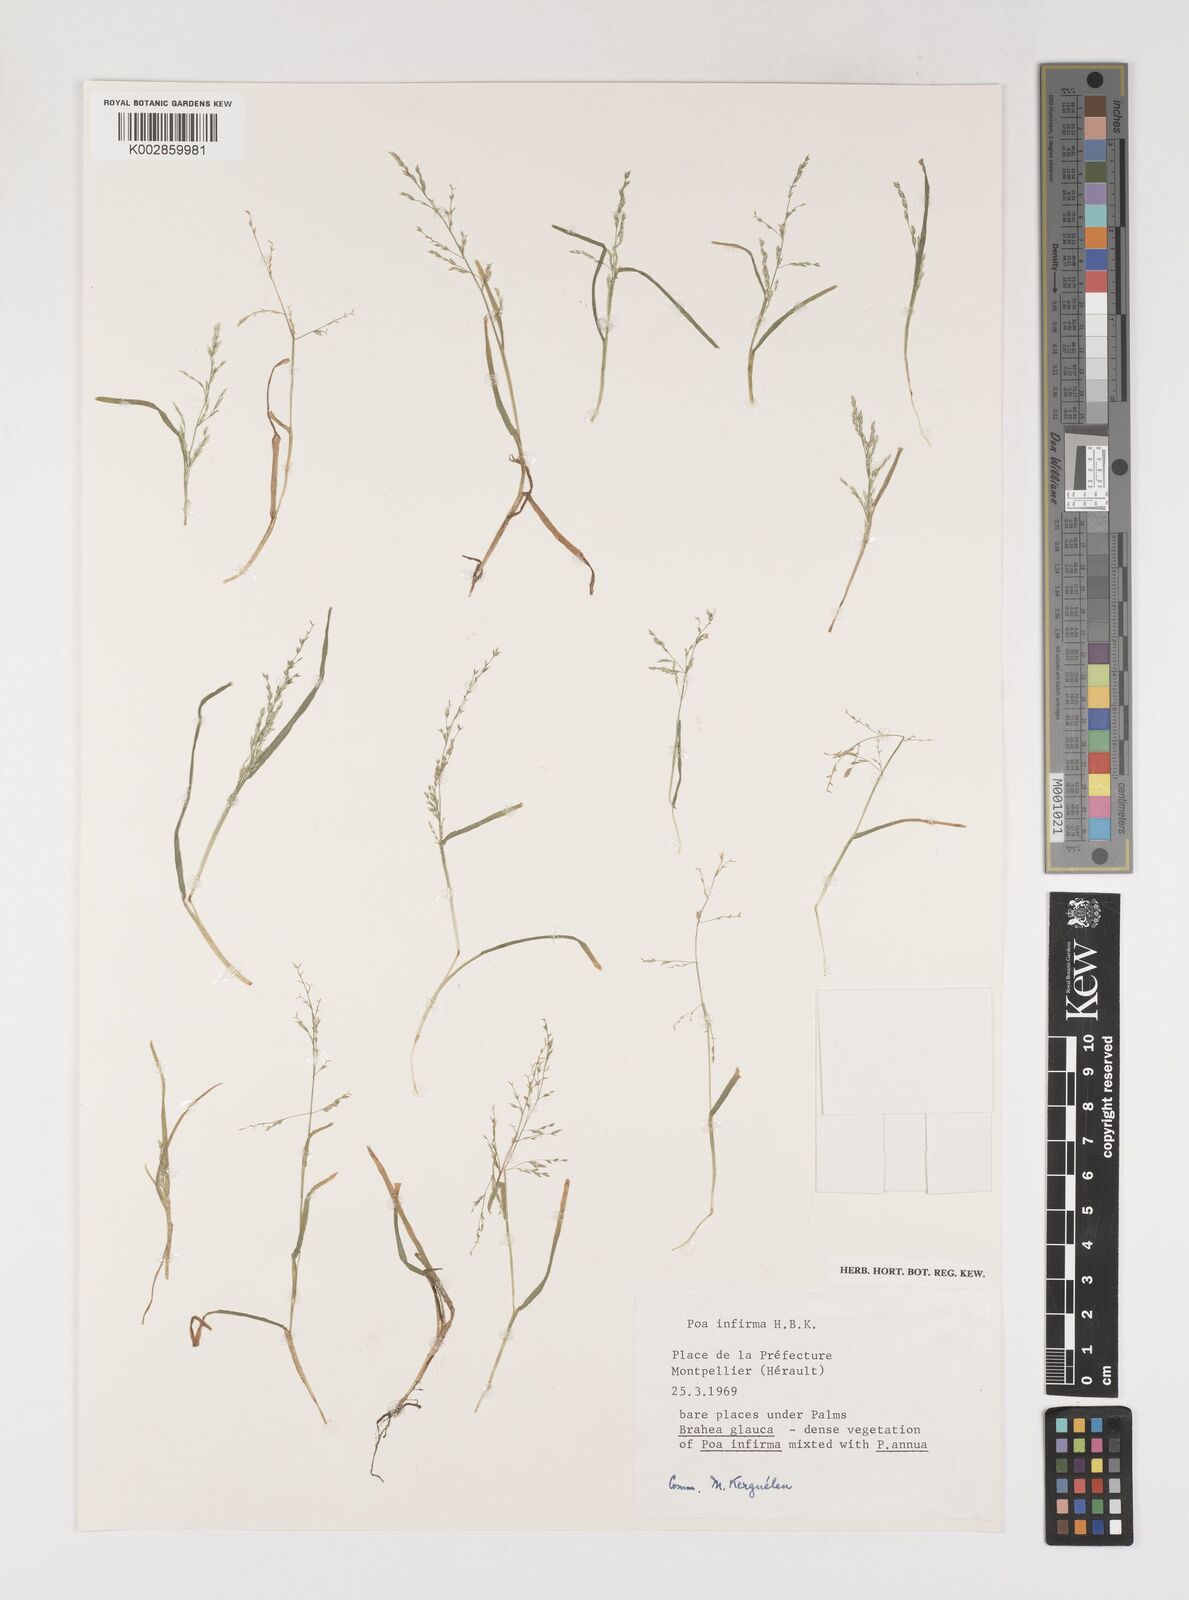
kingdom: Plantae
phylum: Tracheophyta
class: Liliopsida
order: Poales
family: Poaceae
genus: Poa
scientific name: Poa infirma
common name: Weak bluegrass
